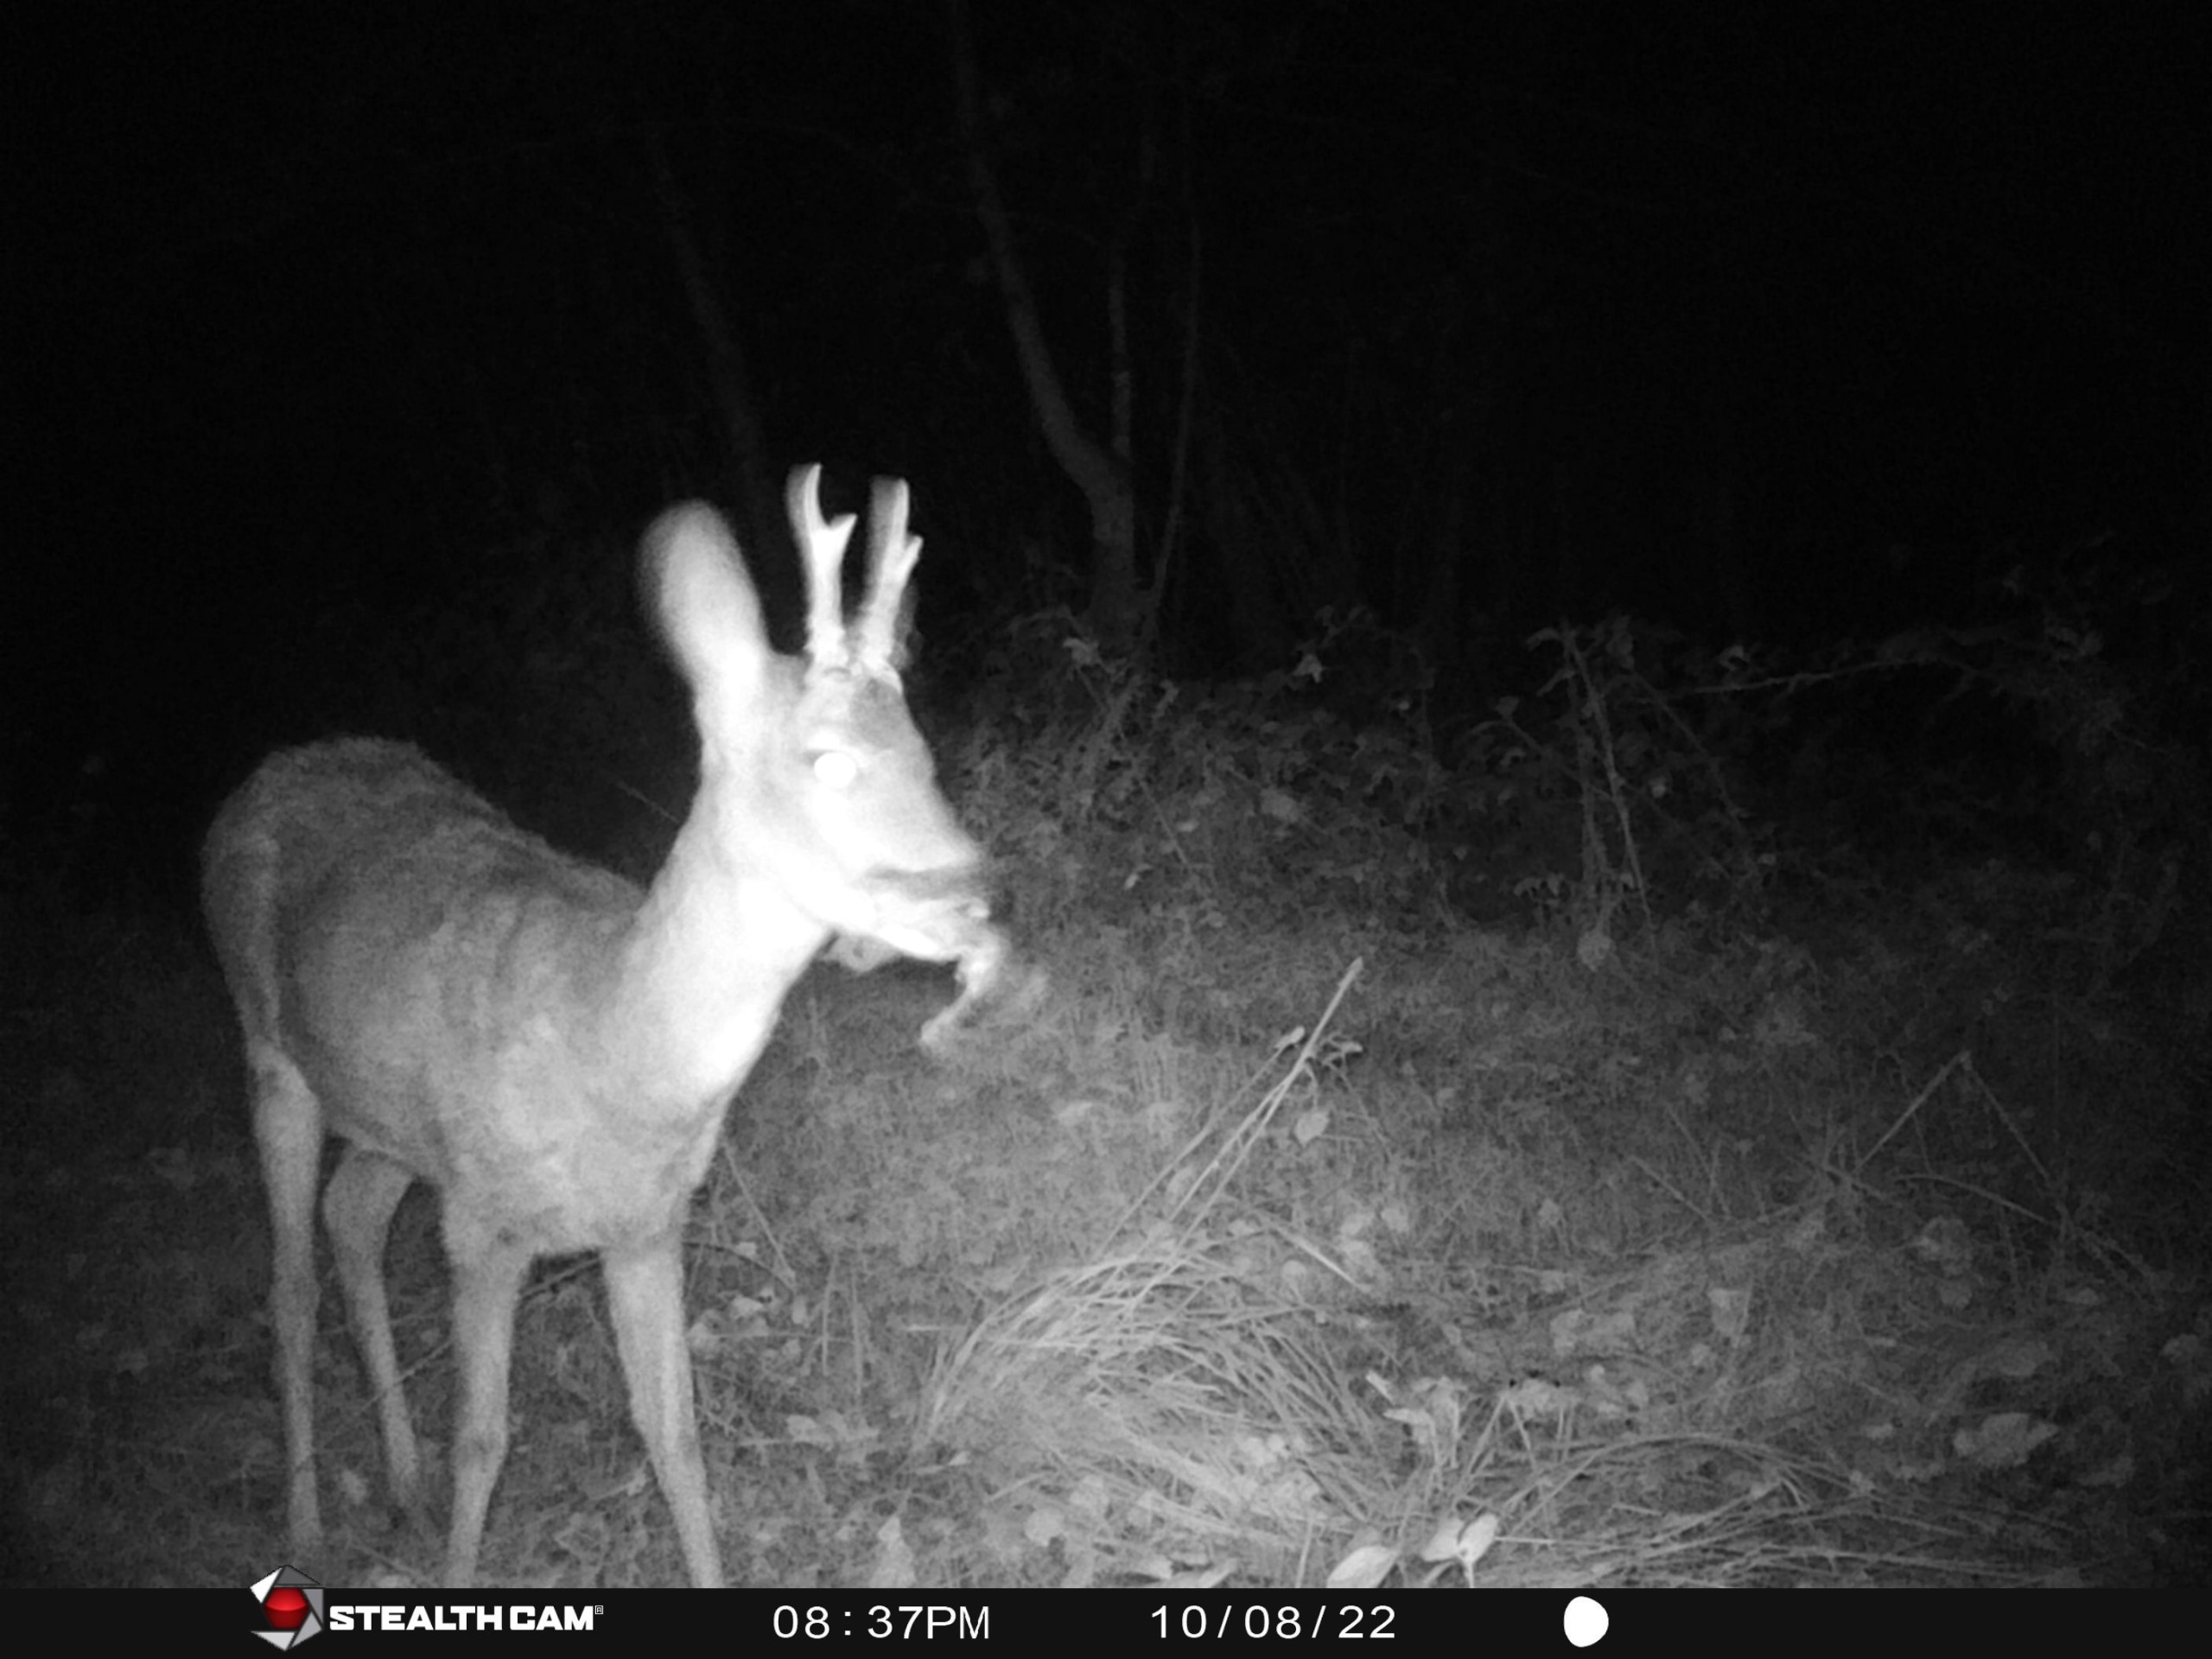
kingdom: Animalia
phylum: Chordata
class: Mammalia
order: Artiodactyla
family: Cervidae
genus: Capreolus
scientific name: Capreolus capreolus
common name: Rådyr
